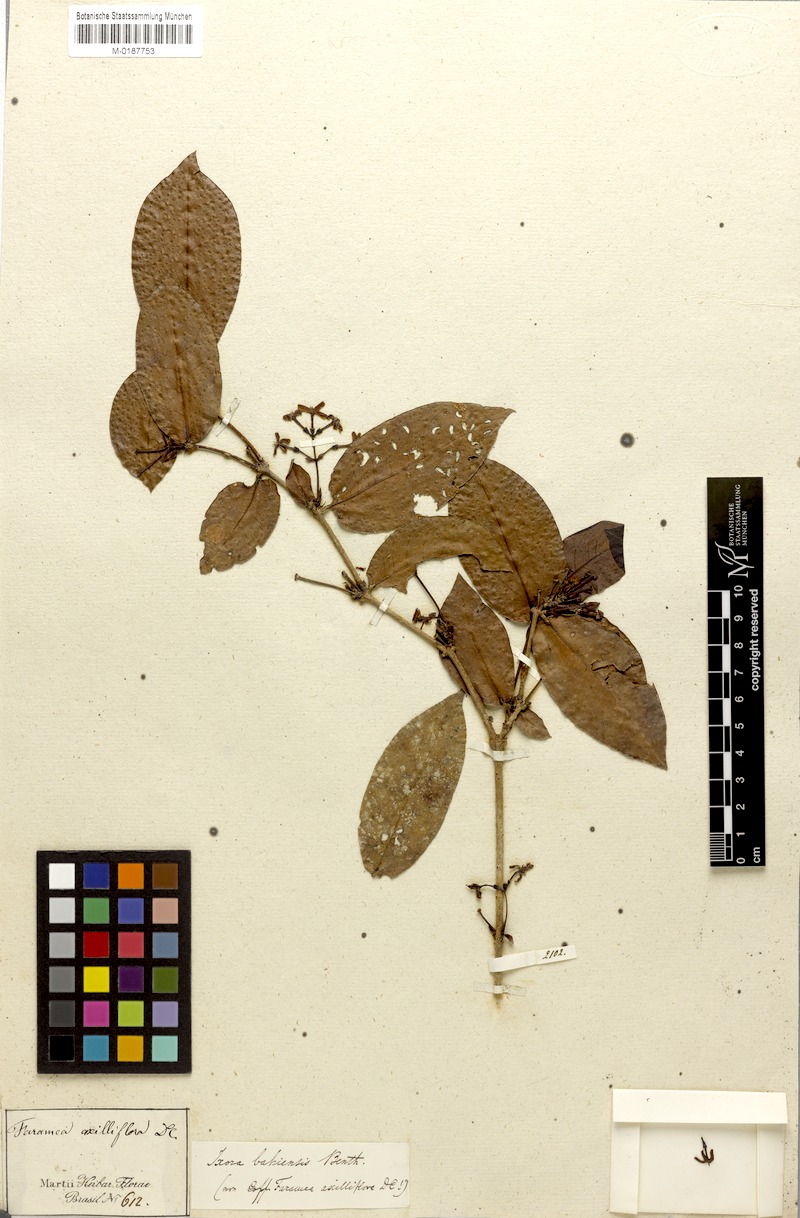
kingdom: Plantae
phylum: Tracheophyta
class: Magnoliopsida
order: Gentianales
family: Rubiaceae
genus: Ixora
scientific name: Ixora bahiensis
